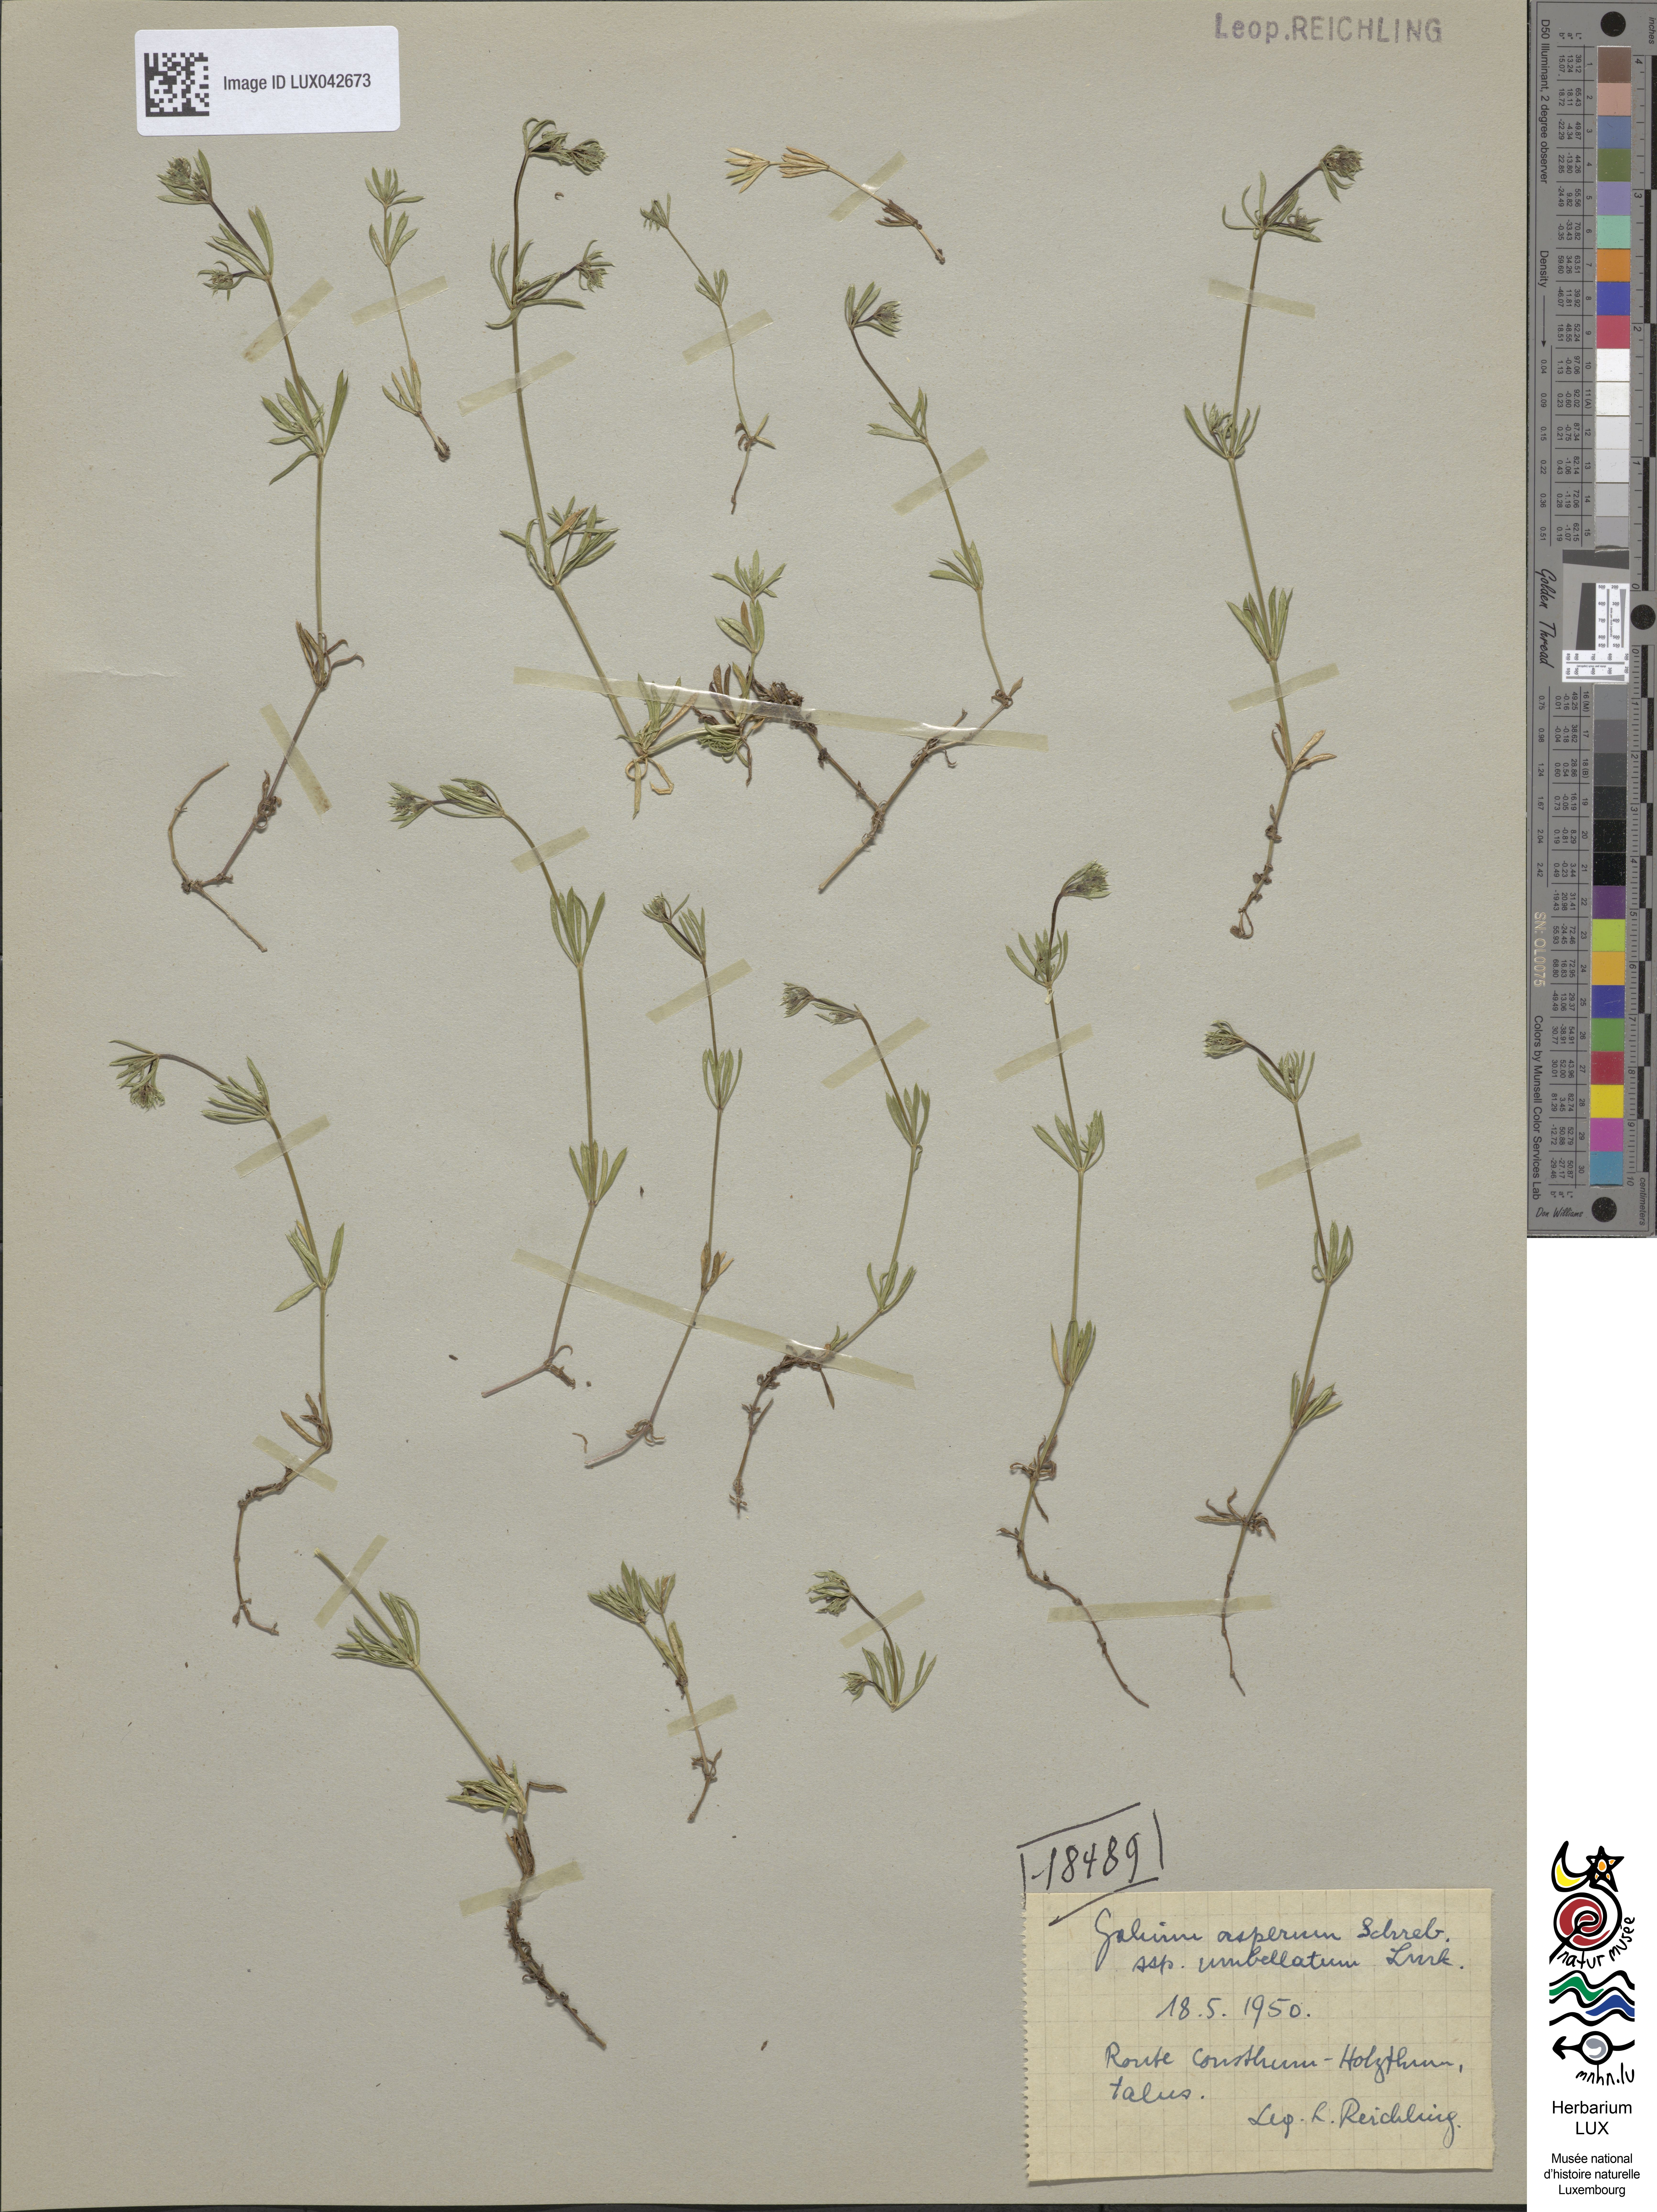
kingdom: Plantae
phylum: Tracheophyta
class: Magnoliopsida
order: Gentianales
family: Rubiaceae
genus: Galium
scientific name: Galium pumilum
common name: Slender bedstraw
